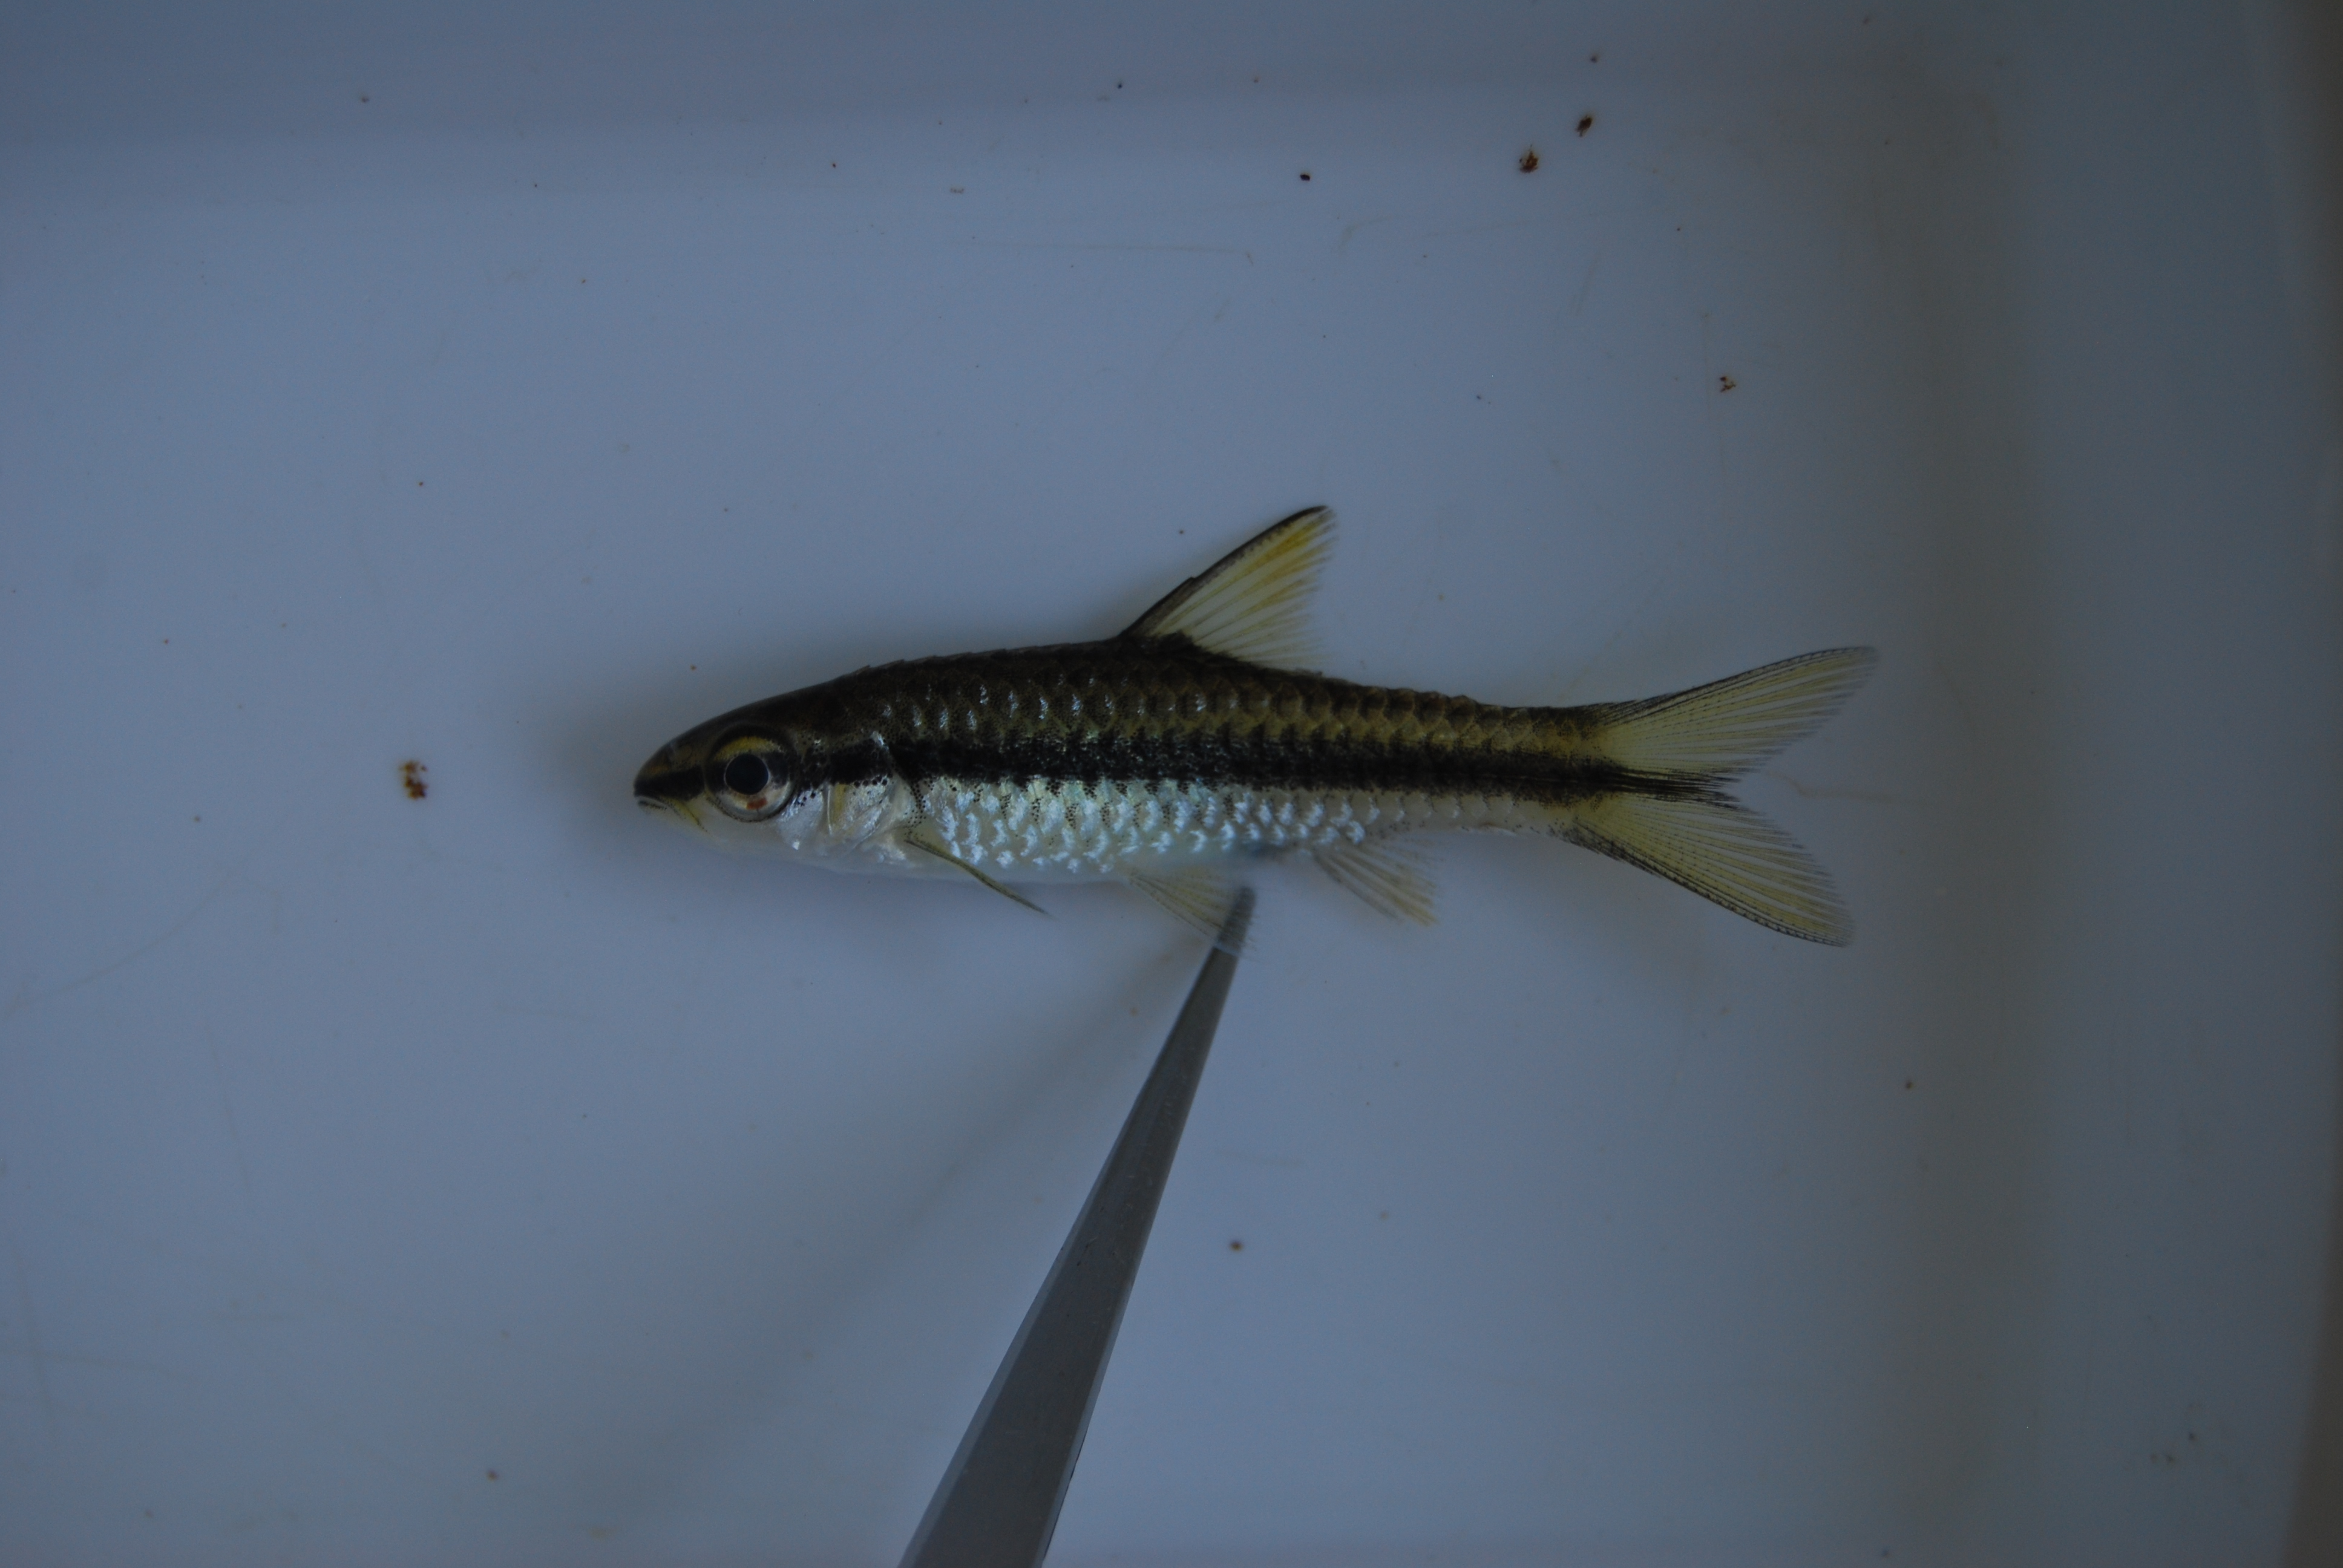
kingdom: Animalia
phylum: Chordata
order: Cypriniformes
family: Cyprinidae
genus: Enteromius
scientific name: Enteromius eutaenia
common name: Orangefin barb
